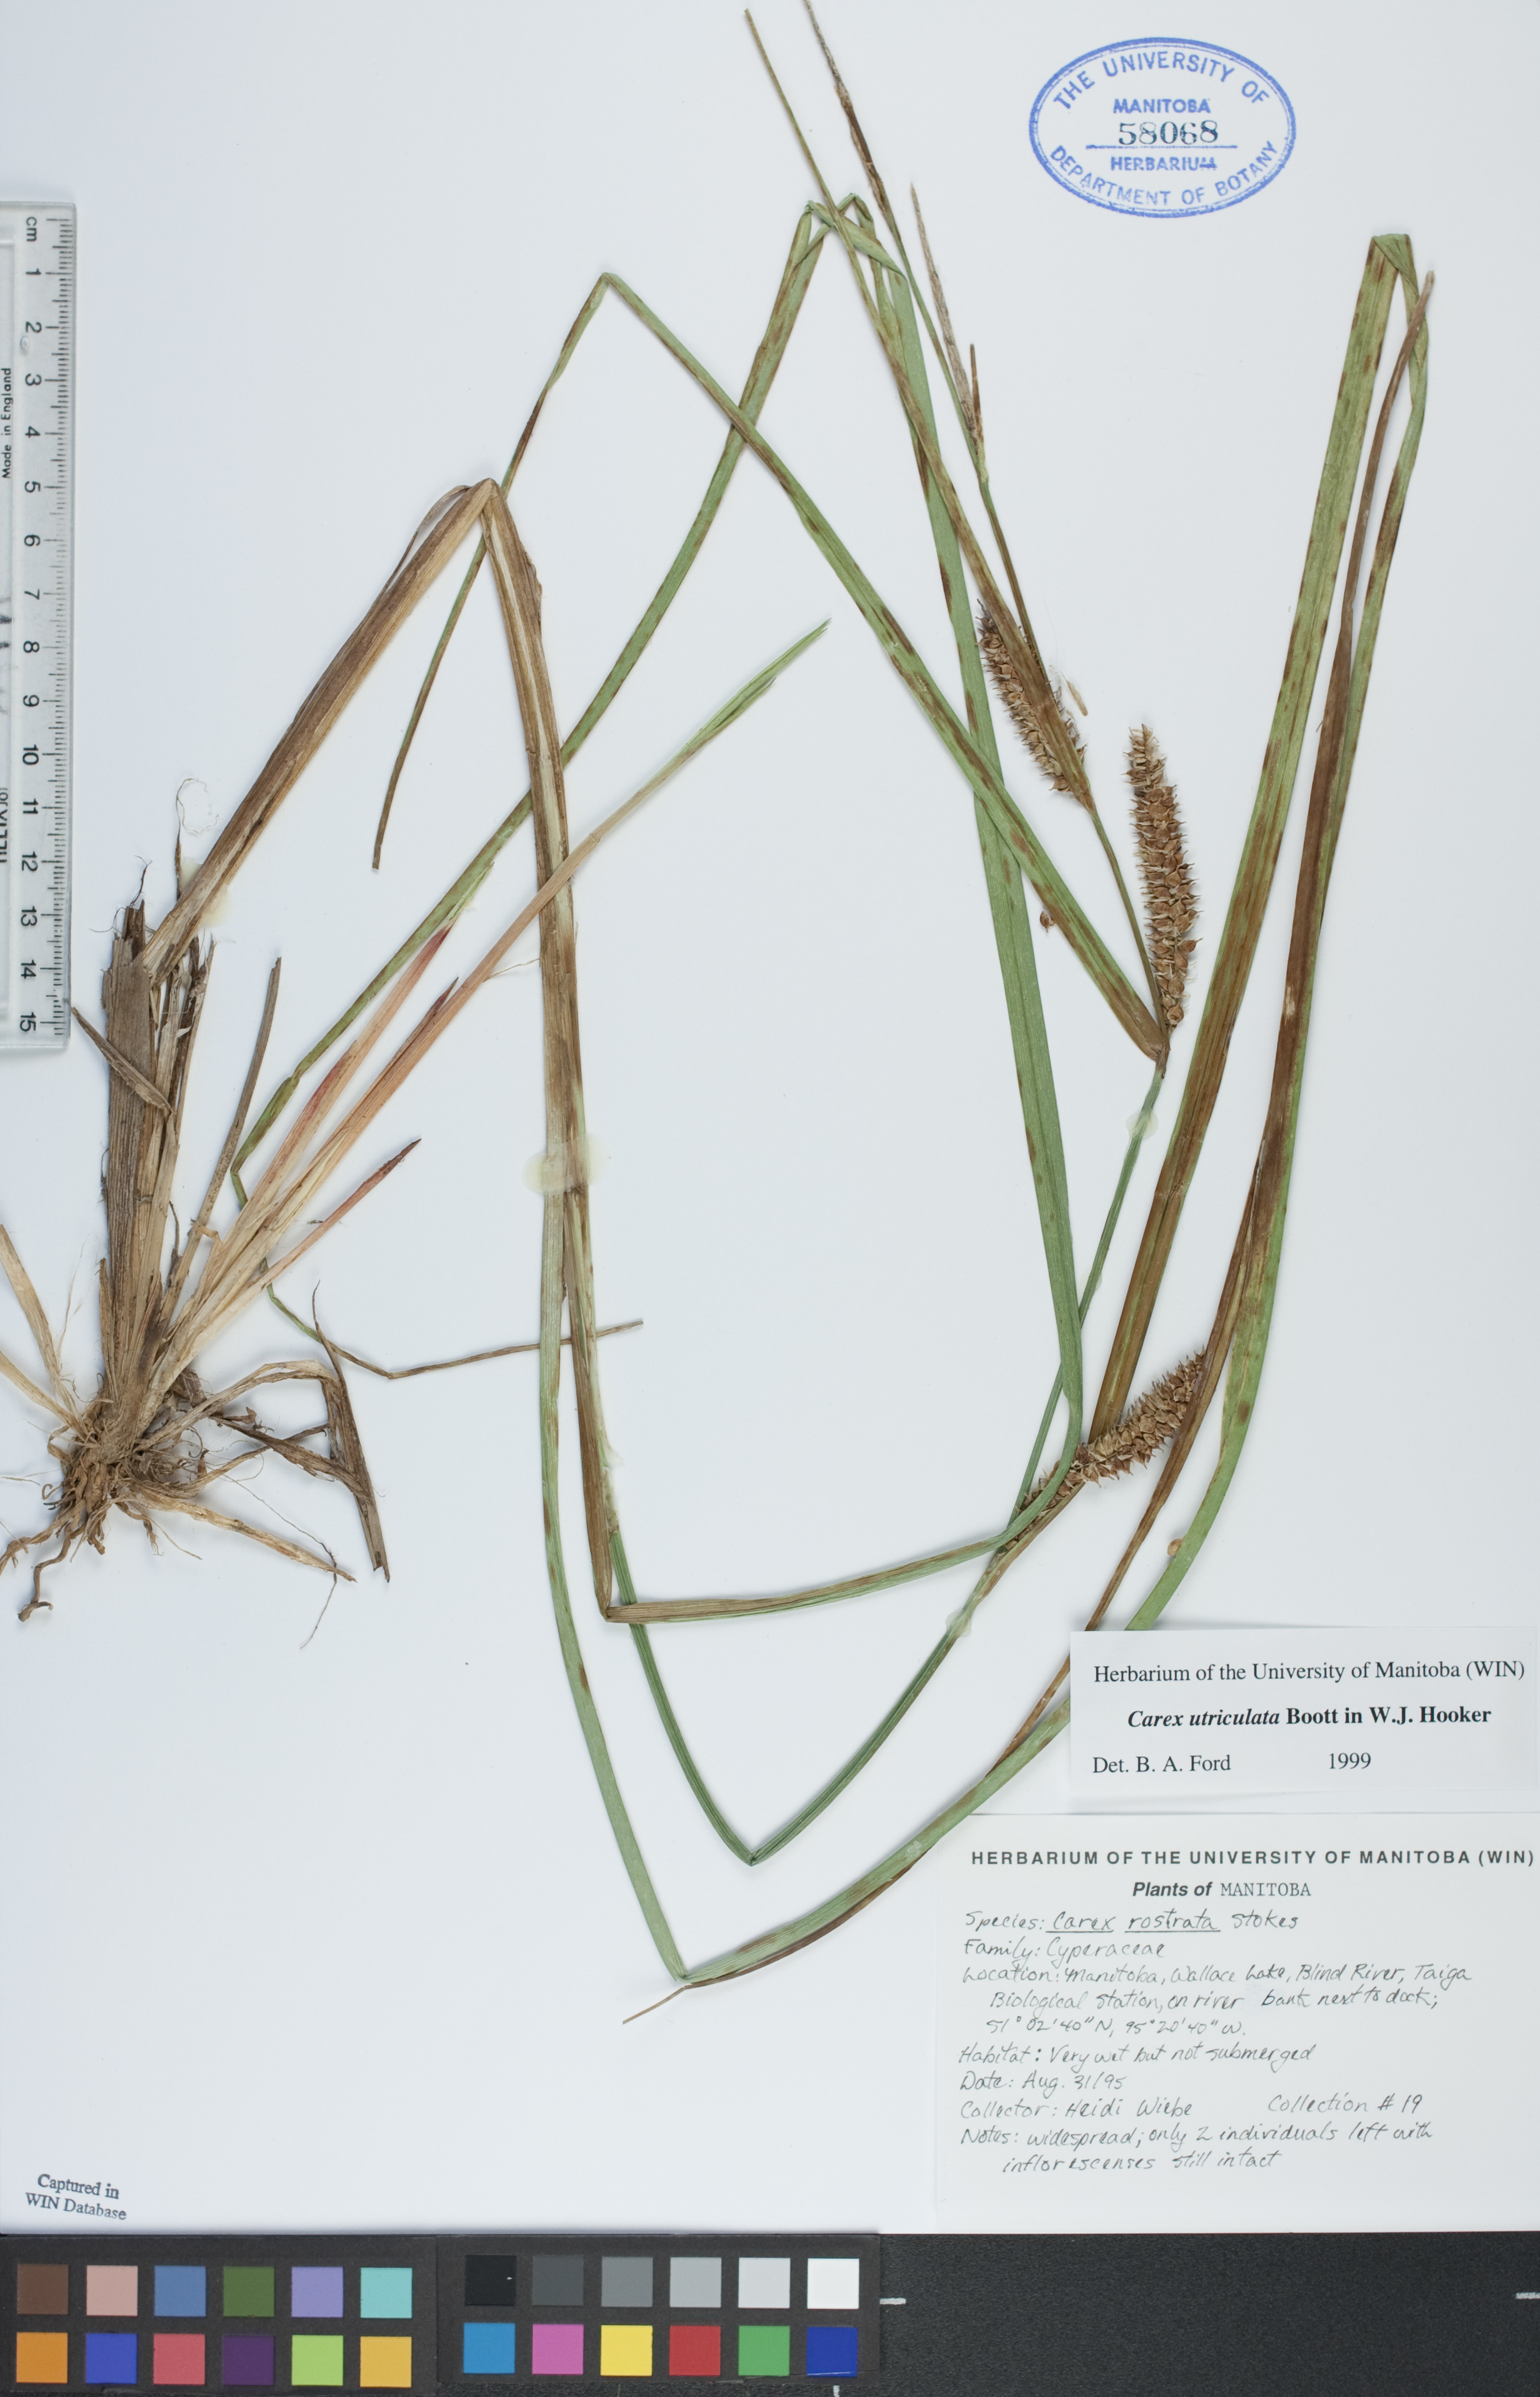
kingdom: Plantae
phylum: Tracheophyta
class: Liliopsida
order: Poales
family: Cyperaceae
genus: Carex
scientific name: Carex utriculata
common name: Beaked sedge
